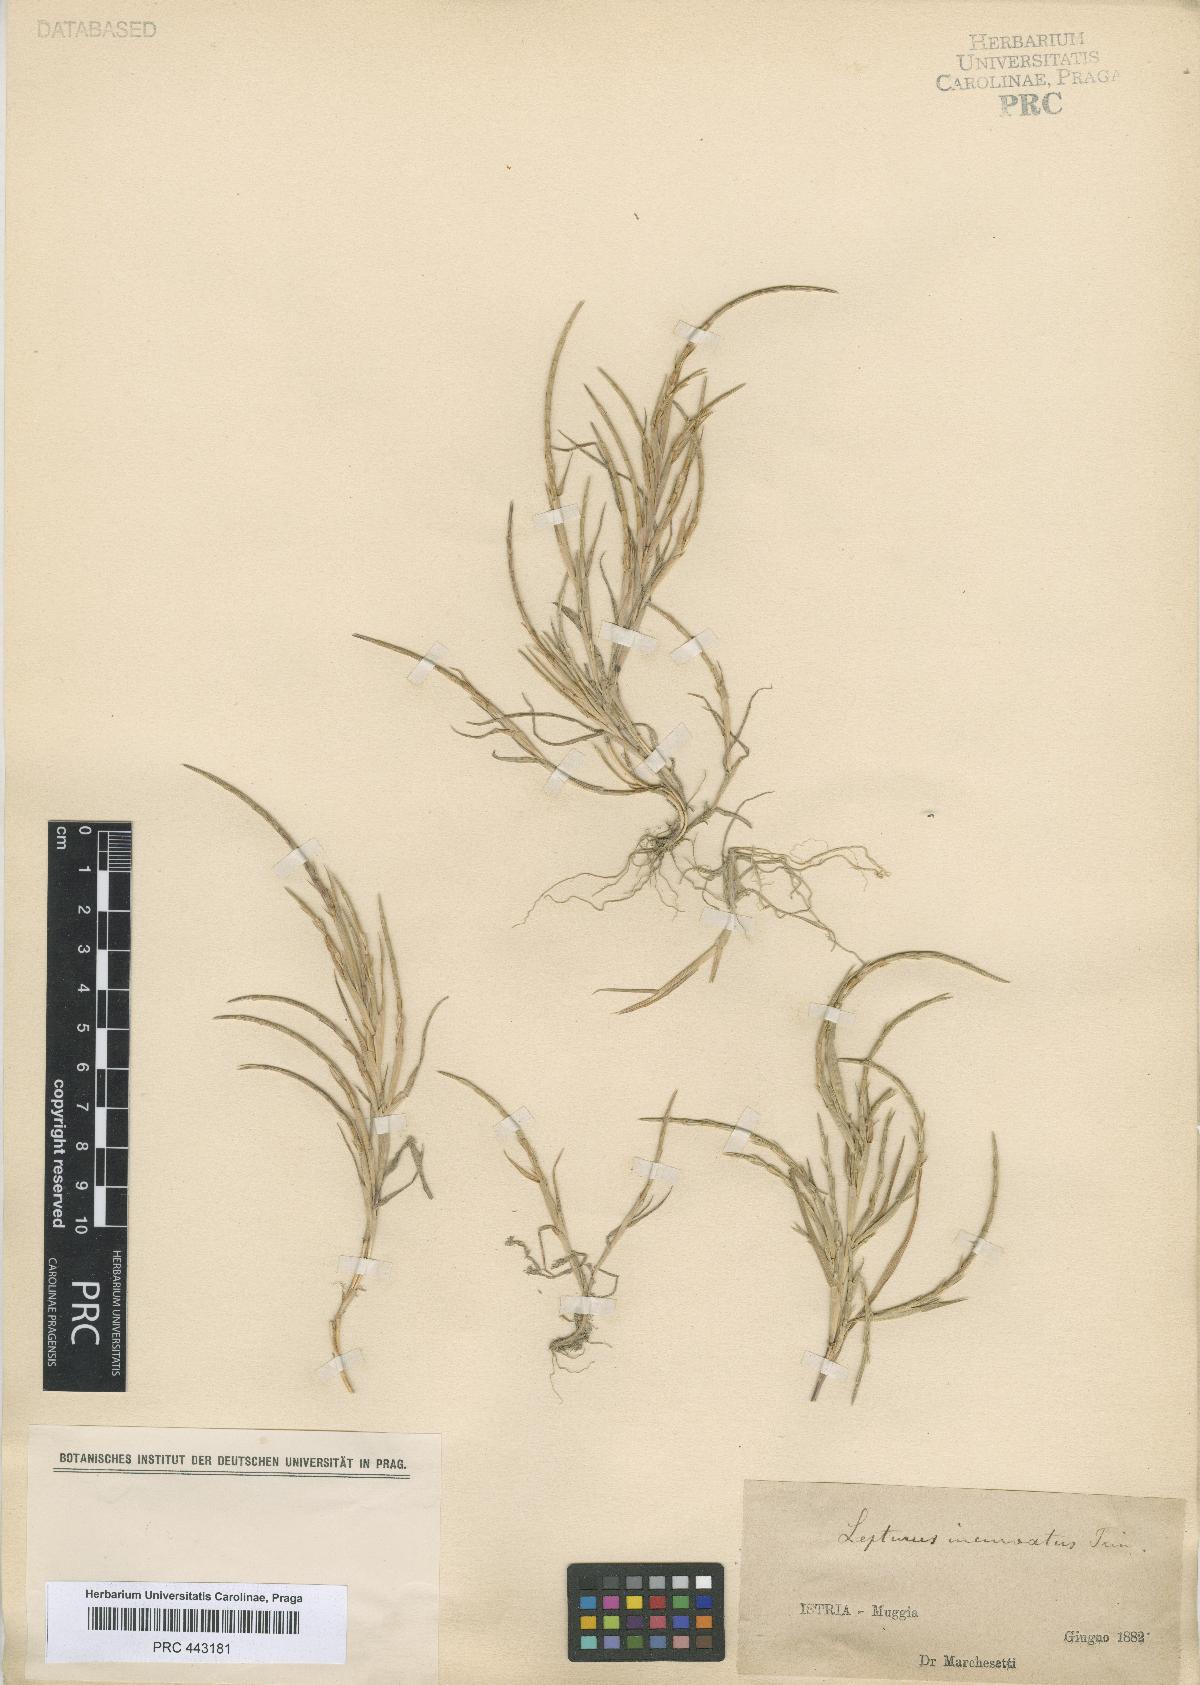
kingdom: Plantae
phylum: Tracheophyta
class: Liliopsida
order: Poales
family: Poaceae
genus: Parapholis
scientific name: Parapholis incurva
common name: Curved sicklegrass
